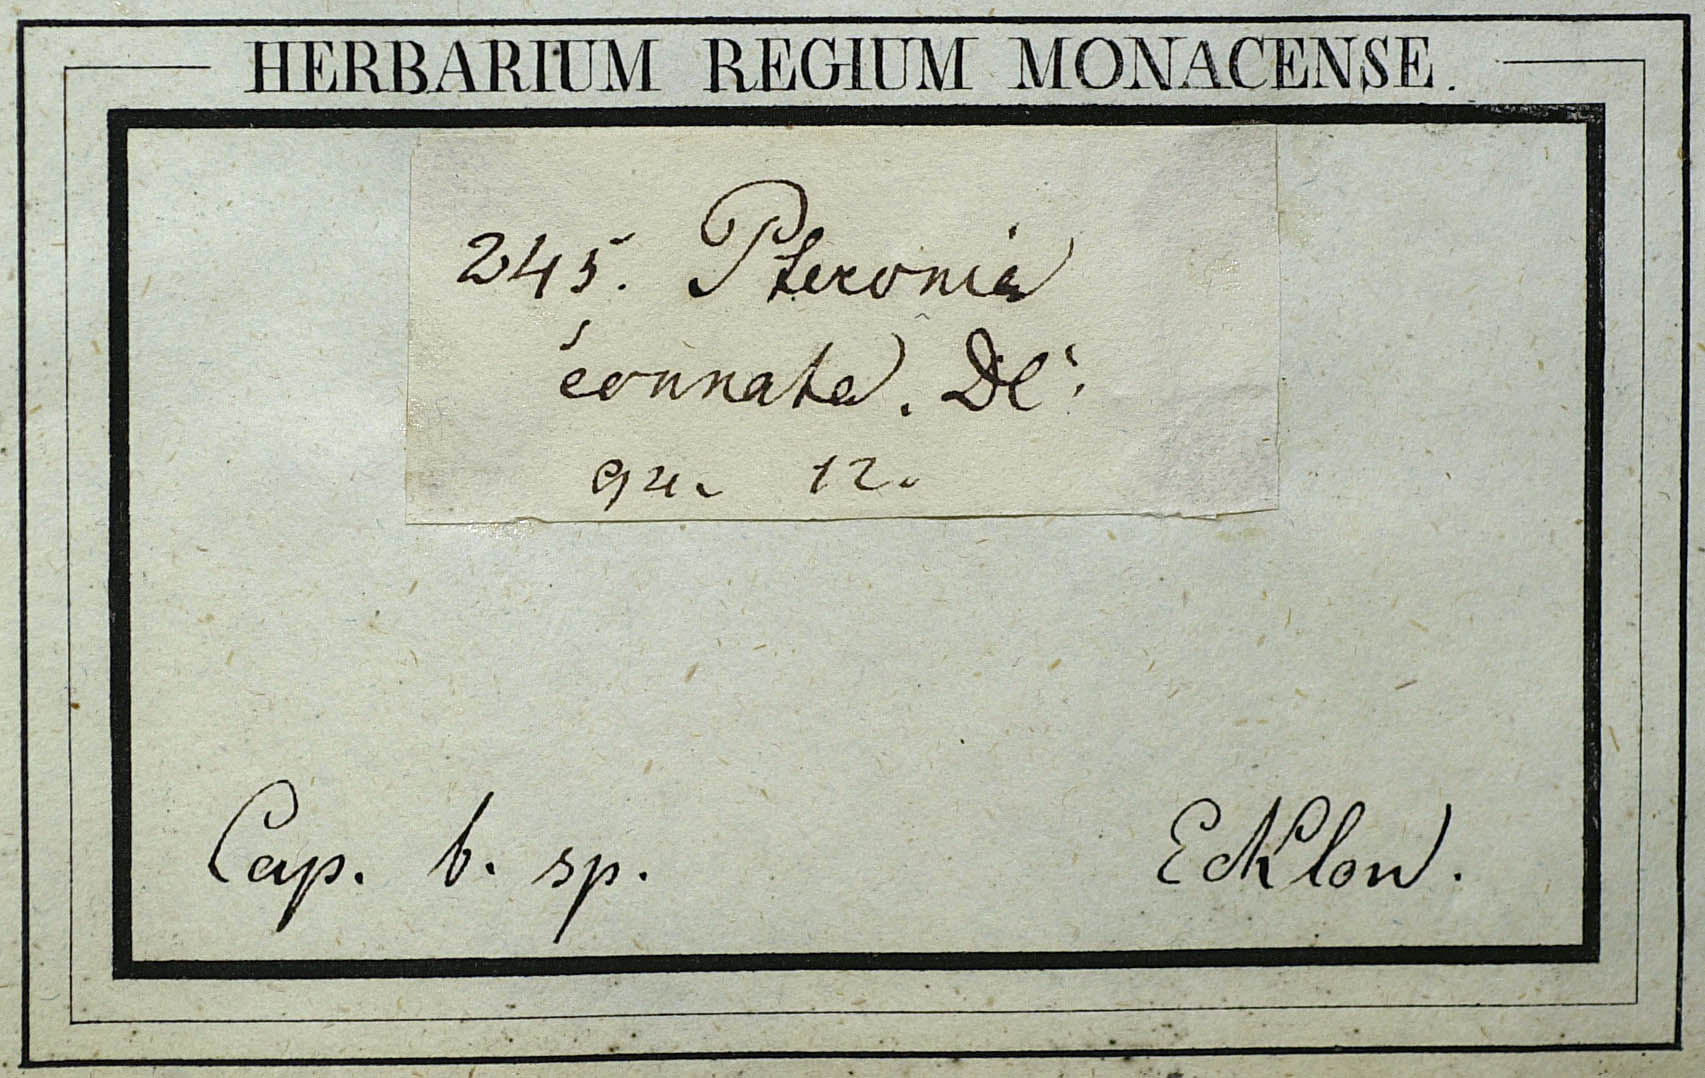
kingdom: Plantae
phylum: Tracheophyta
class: Magnoliopsida
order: Asterales
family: Asteraceae
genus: Pteronia
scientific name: Pteronia paniculata
